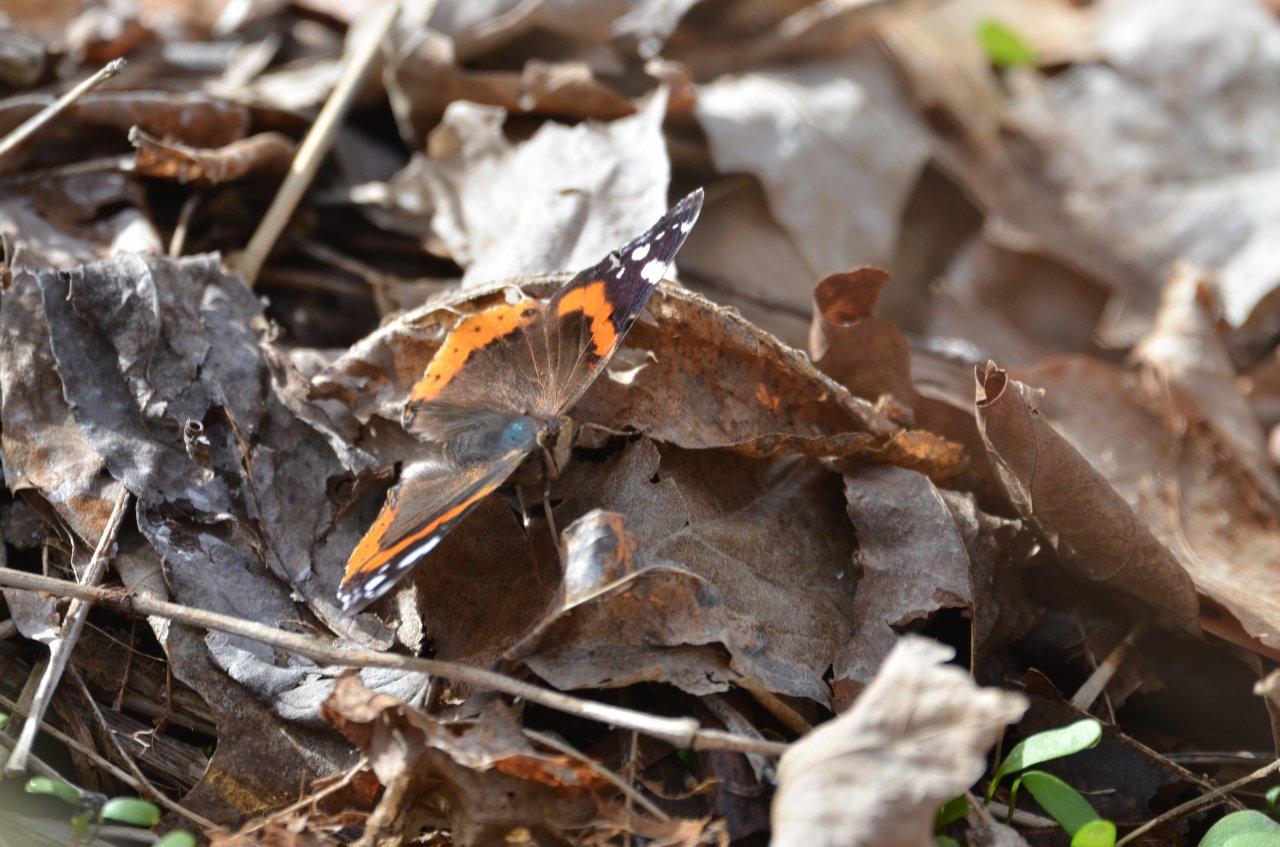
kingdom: Animalia
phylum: Arthropoda
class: Insecta
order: Lepidoptera
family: Nymphalidae
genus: Vanessa
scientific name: Vanessa atalanta
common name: Red Admiral
